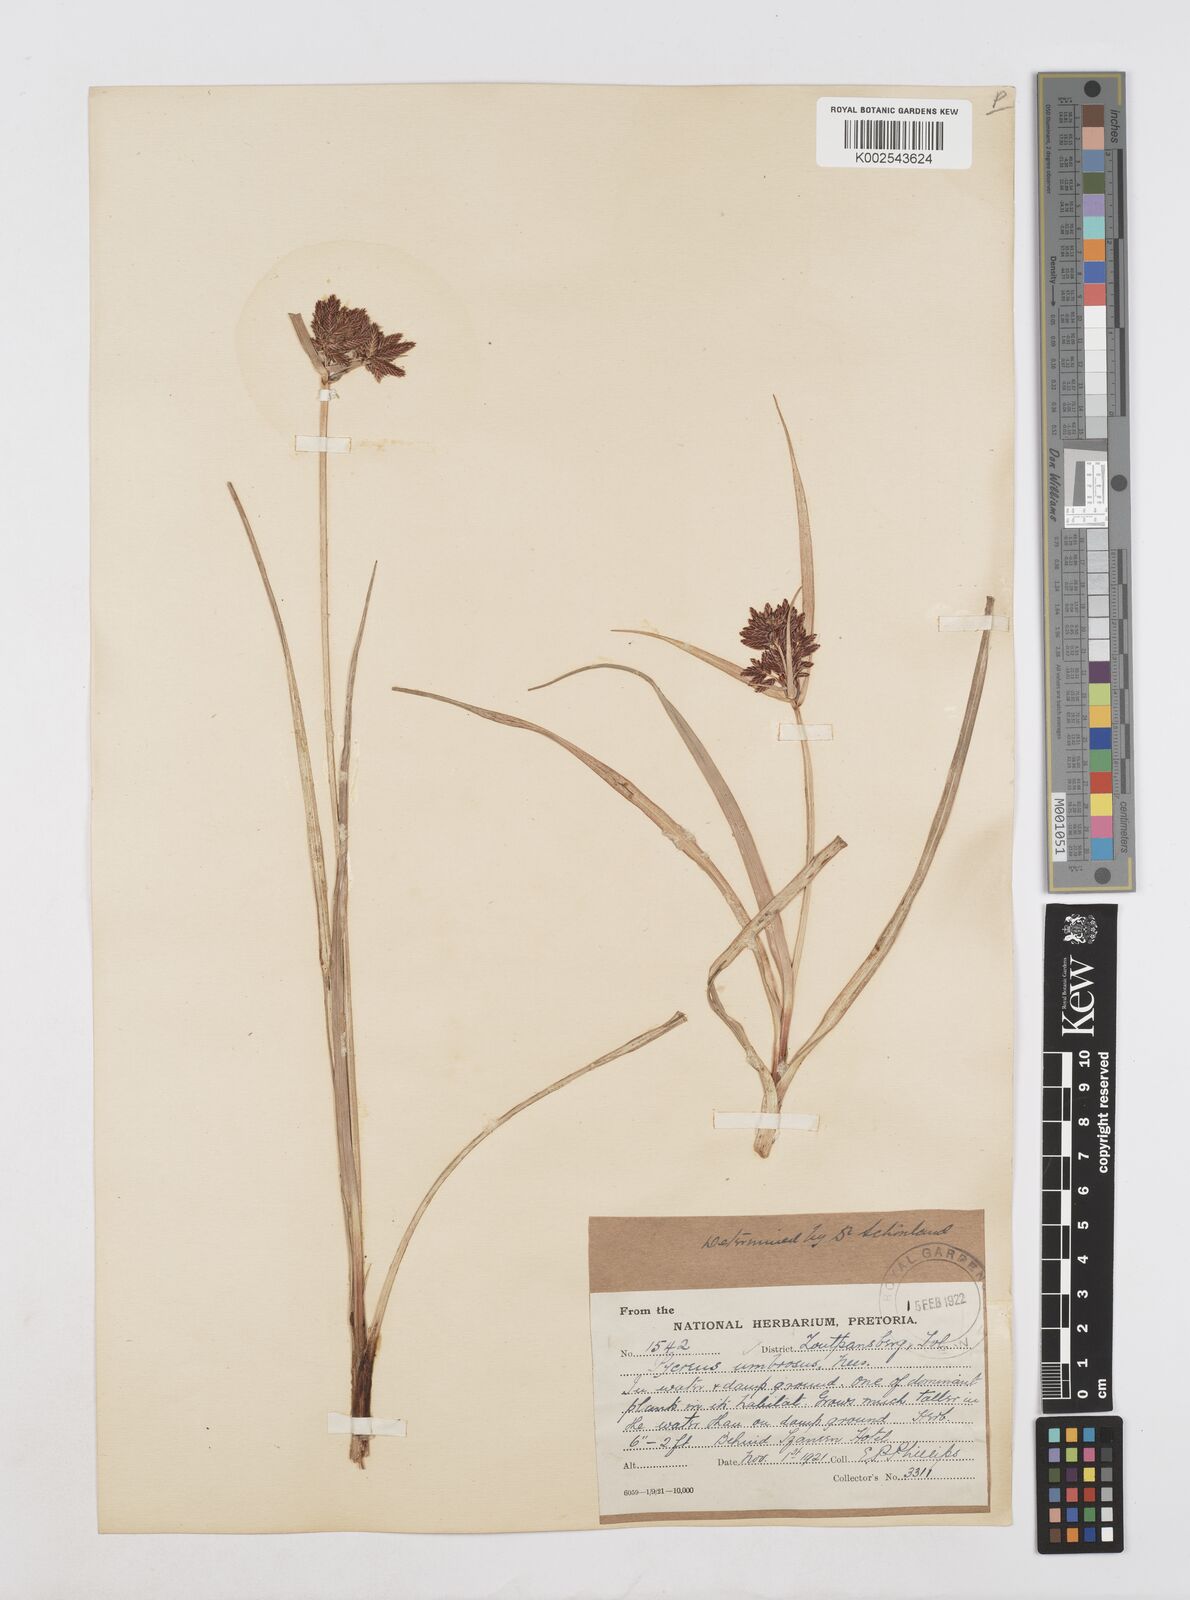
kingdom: Plantae
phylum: Tracheophyta
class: Liliopsida
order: Poales
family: Cyperaceae
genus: Cyperus
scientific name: Cyperus nitidus
